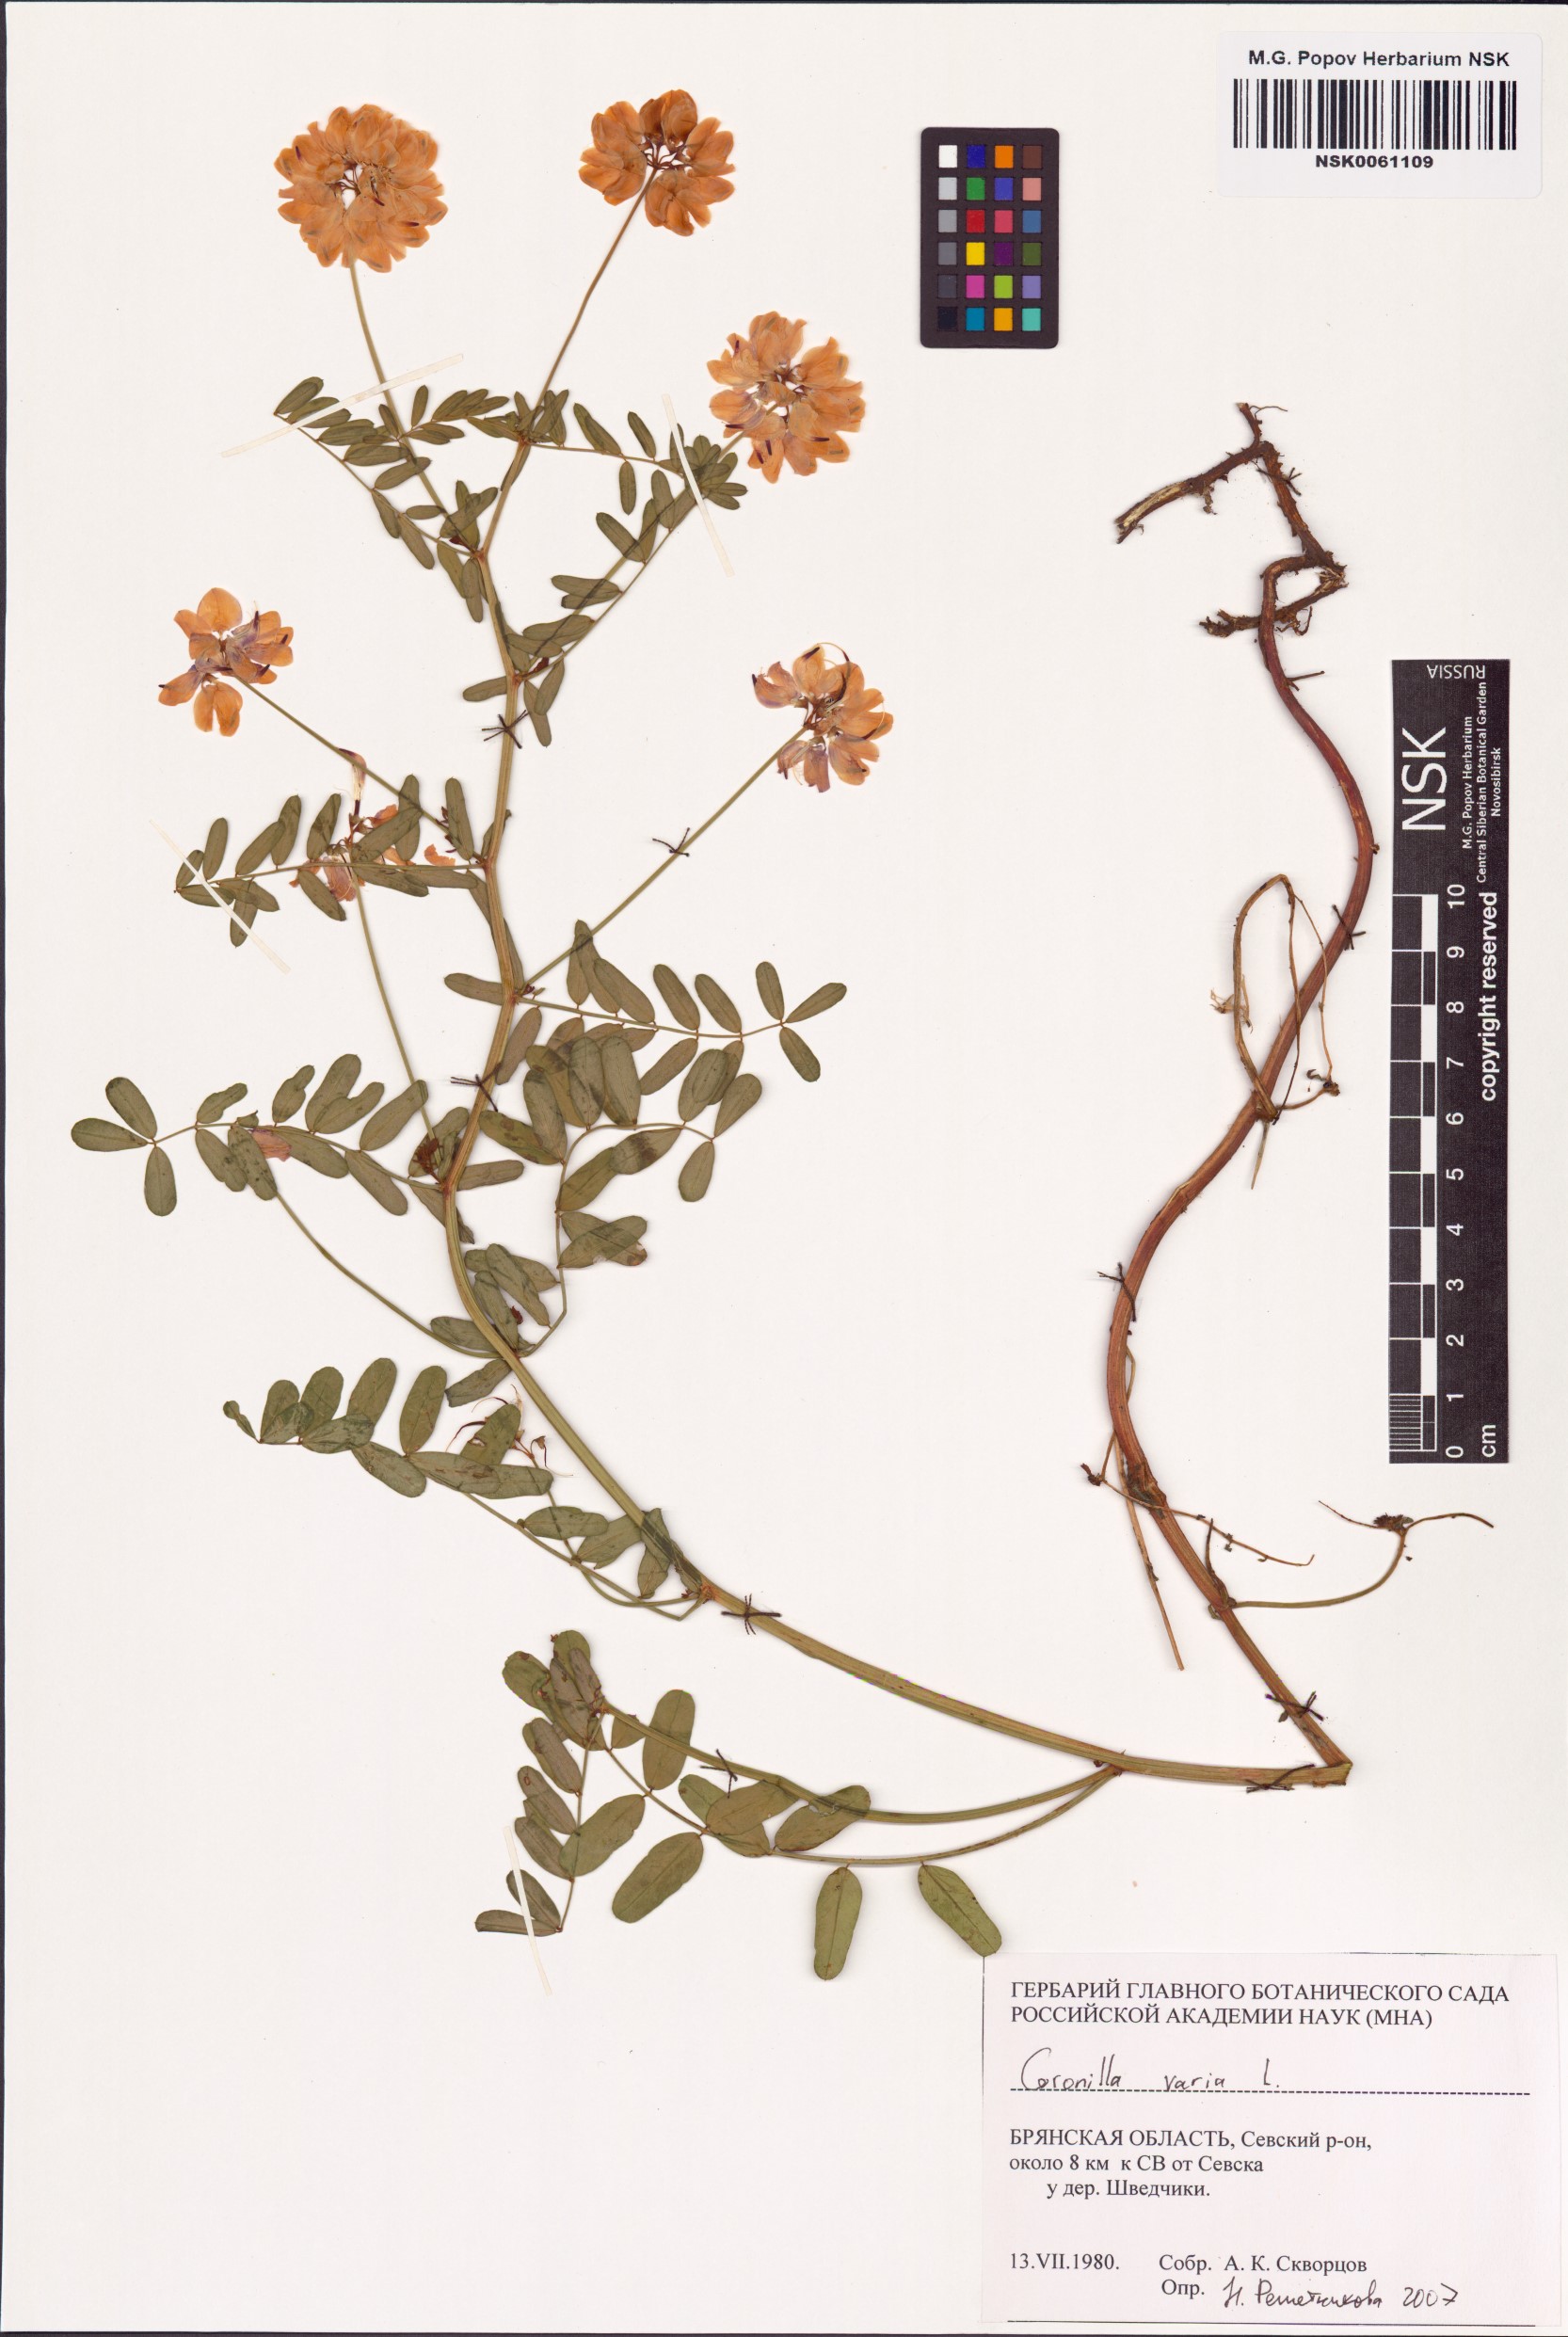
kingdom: Plantae
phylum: Tracheophyta
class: Magnoliopsida
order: Fabales
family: Fabaceae
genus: Coronilla
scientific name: Coronilla varia
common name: Crownvetch
